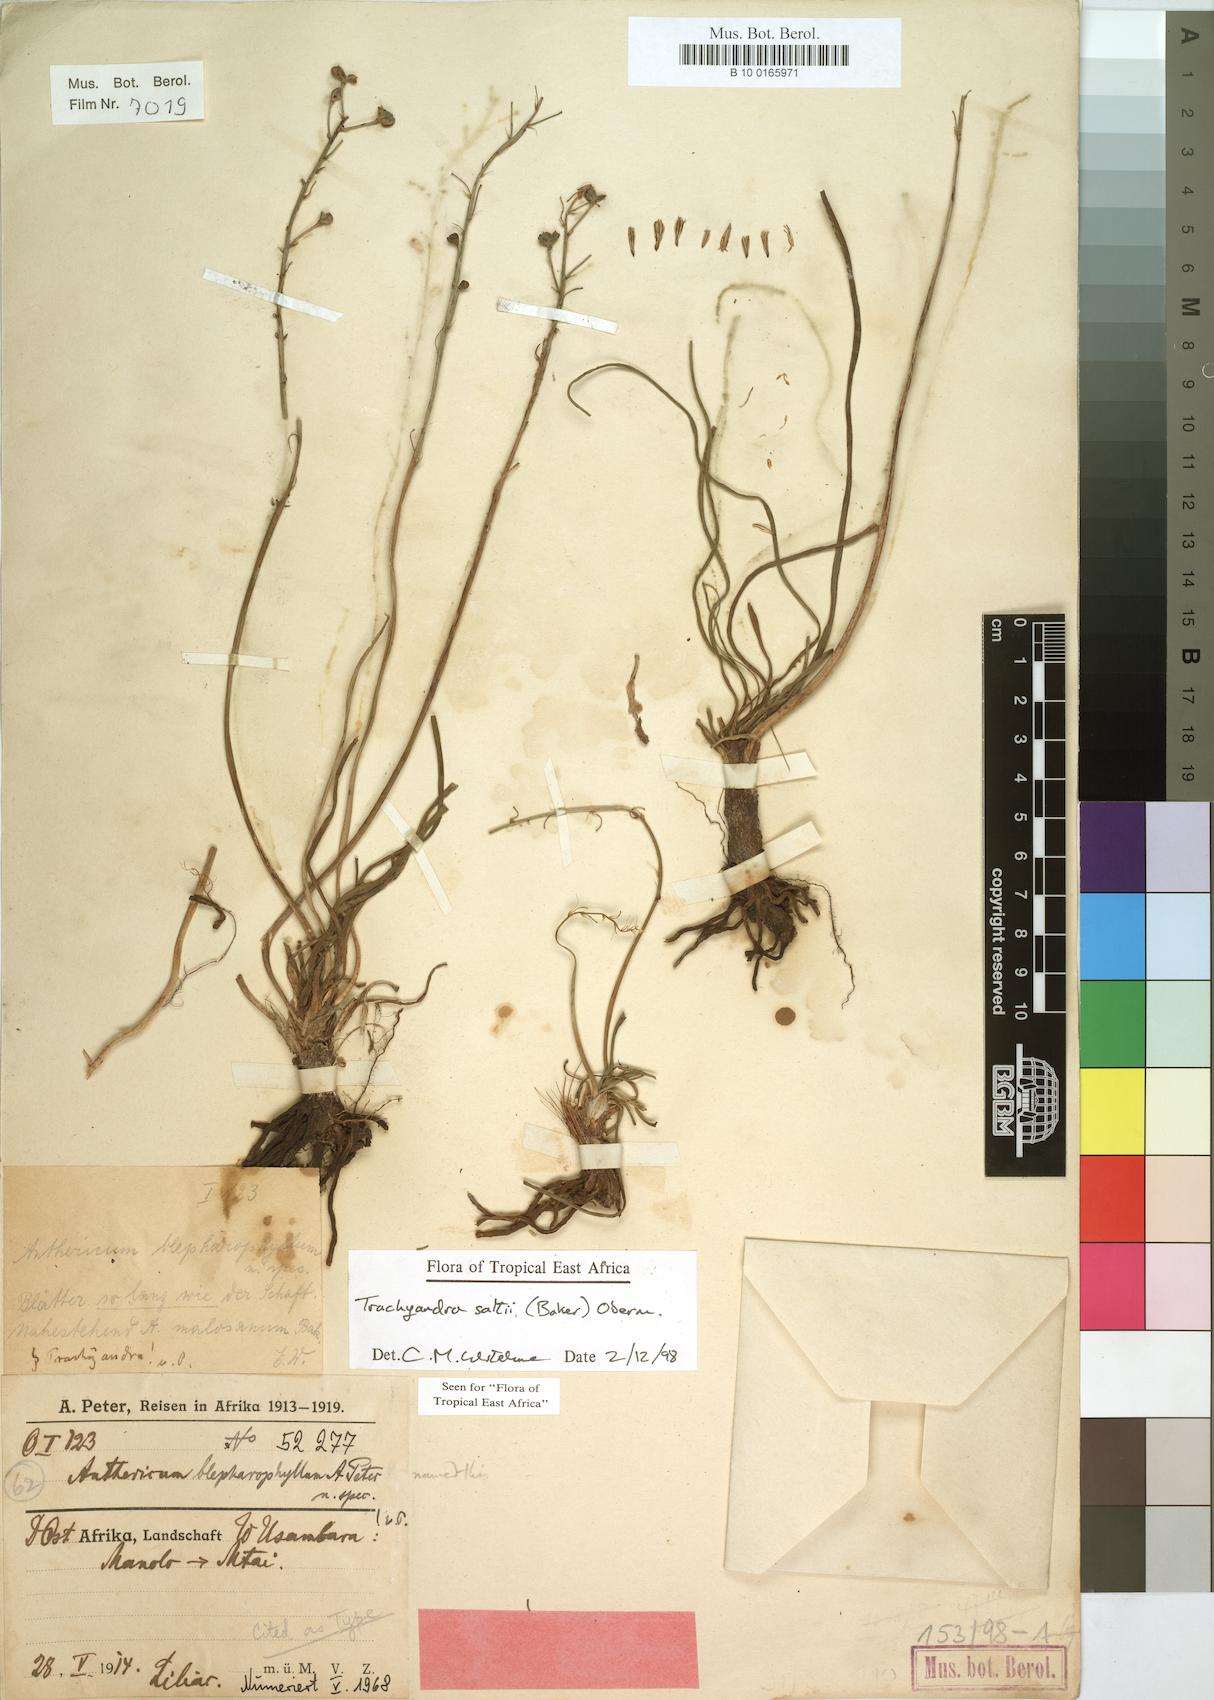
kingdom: Plantae
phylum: Tracheophyta
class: Liliopsida
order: Asparagales
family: Asphodelaceae
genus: Trachyandra
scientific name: Trachyandra saltii
